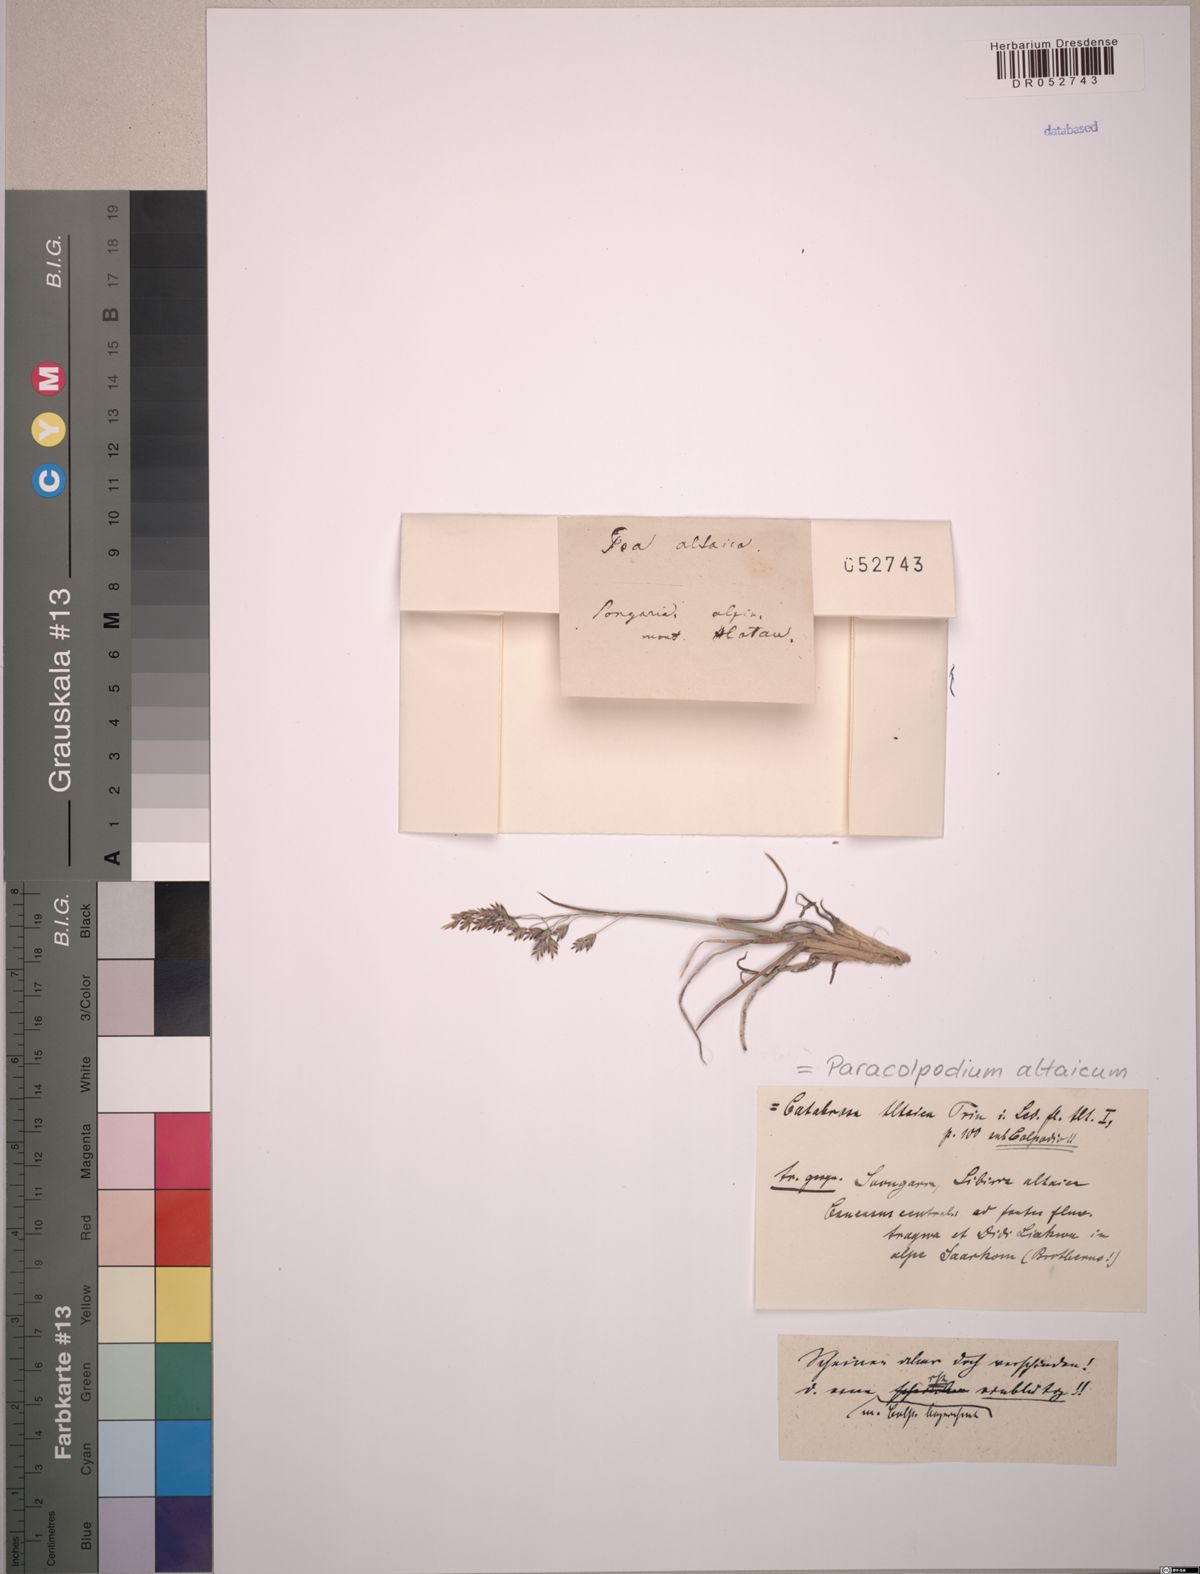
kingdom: Plantae
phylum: Tracheophyta
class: Liliopsida
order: Poales
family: Poaceae
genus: Paracolpodium
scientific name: Paracolpodium altaicum
